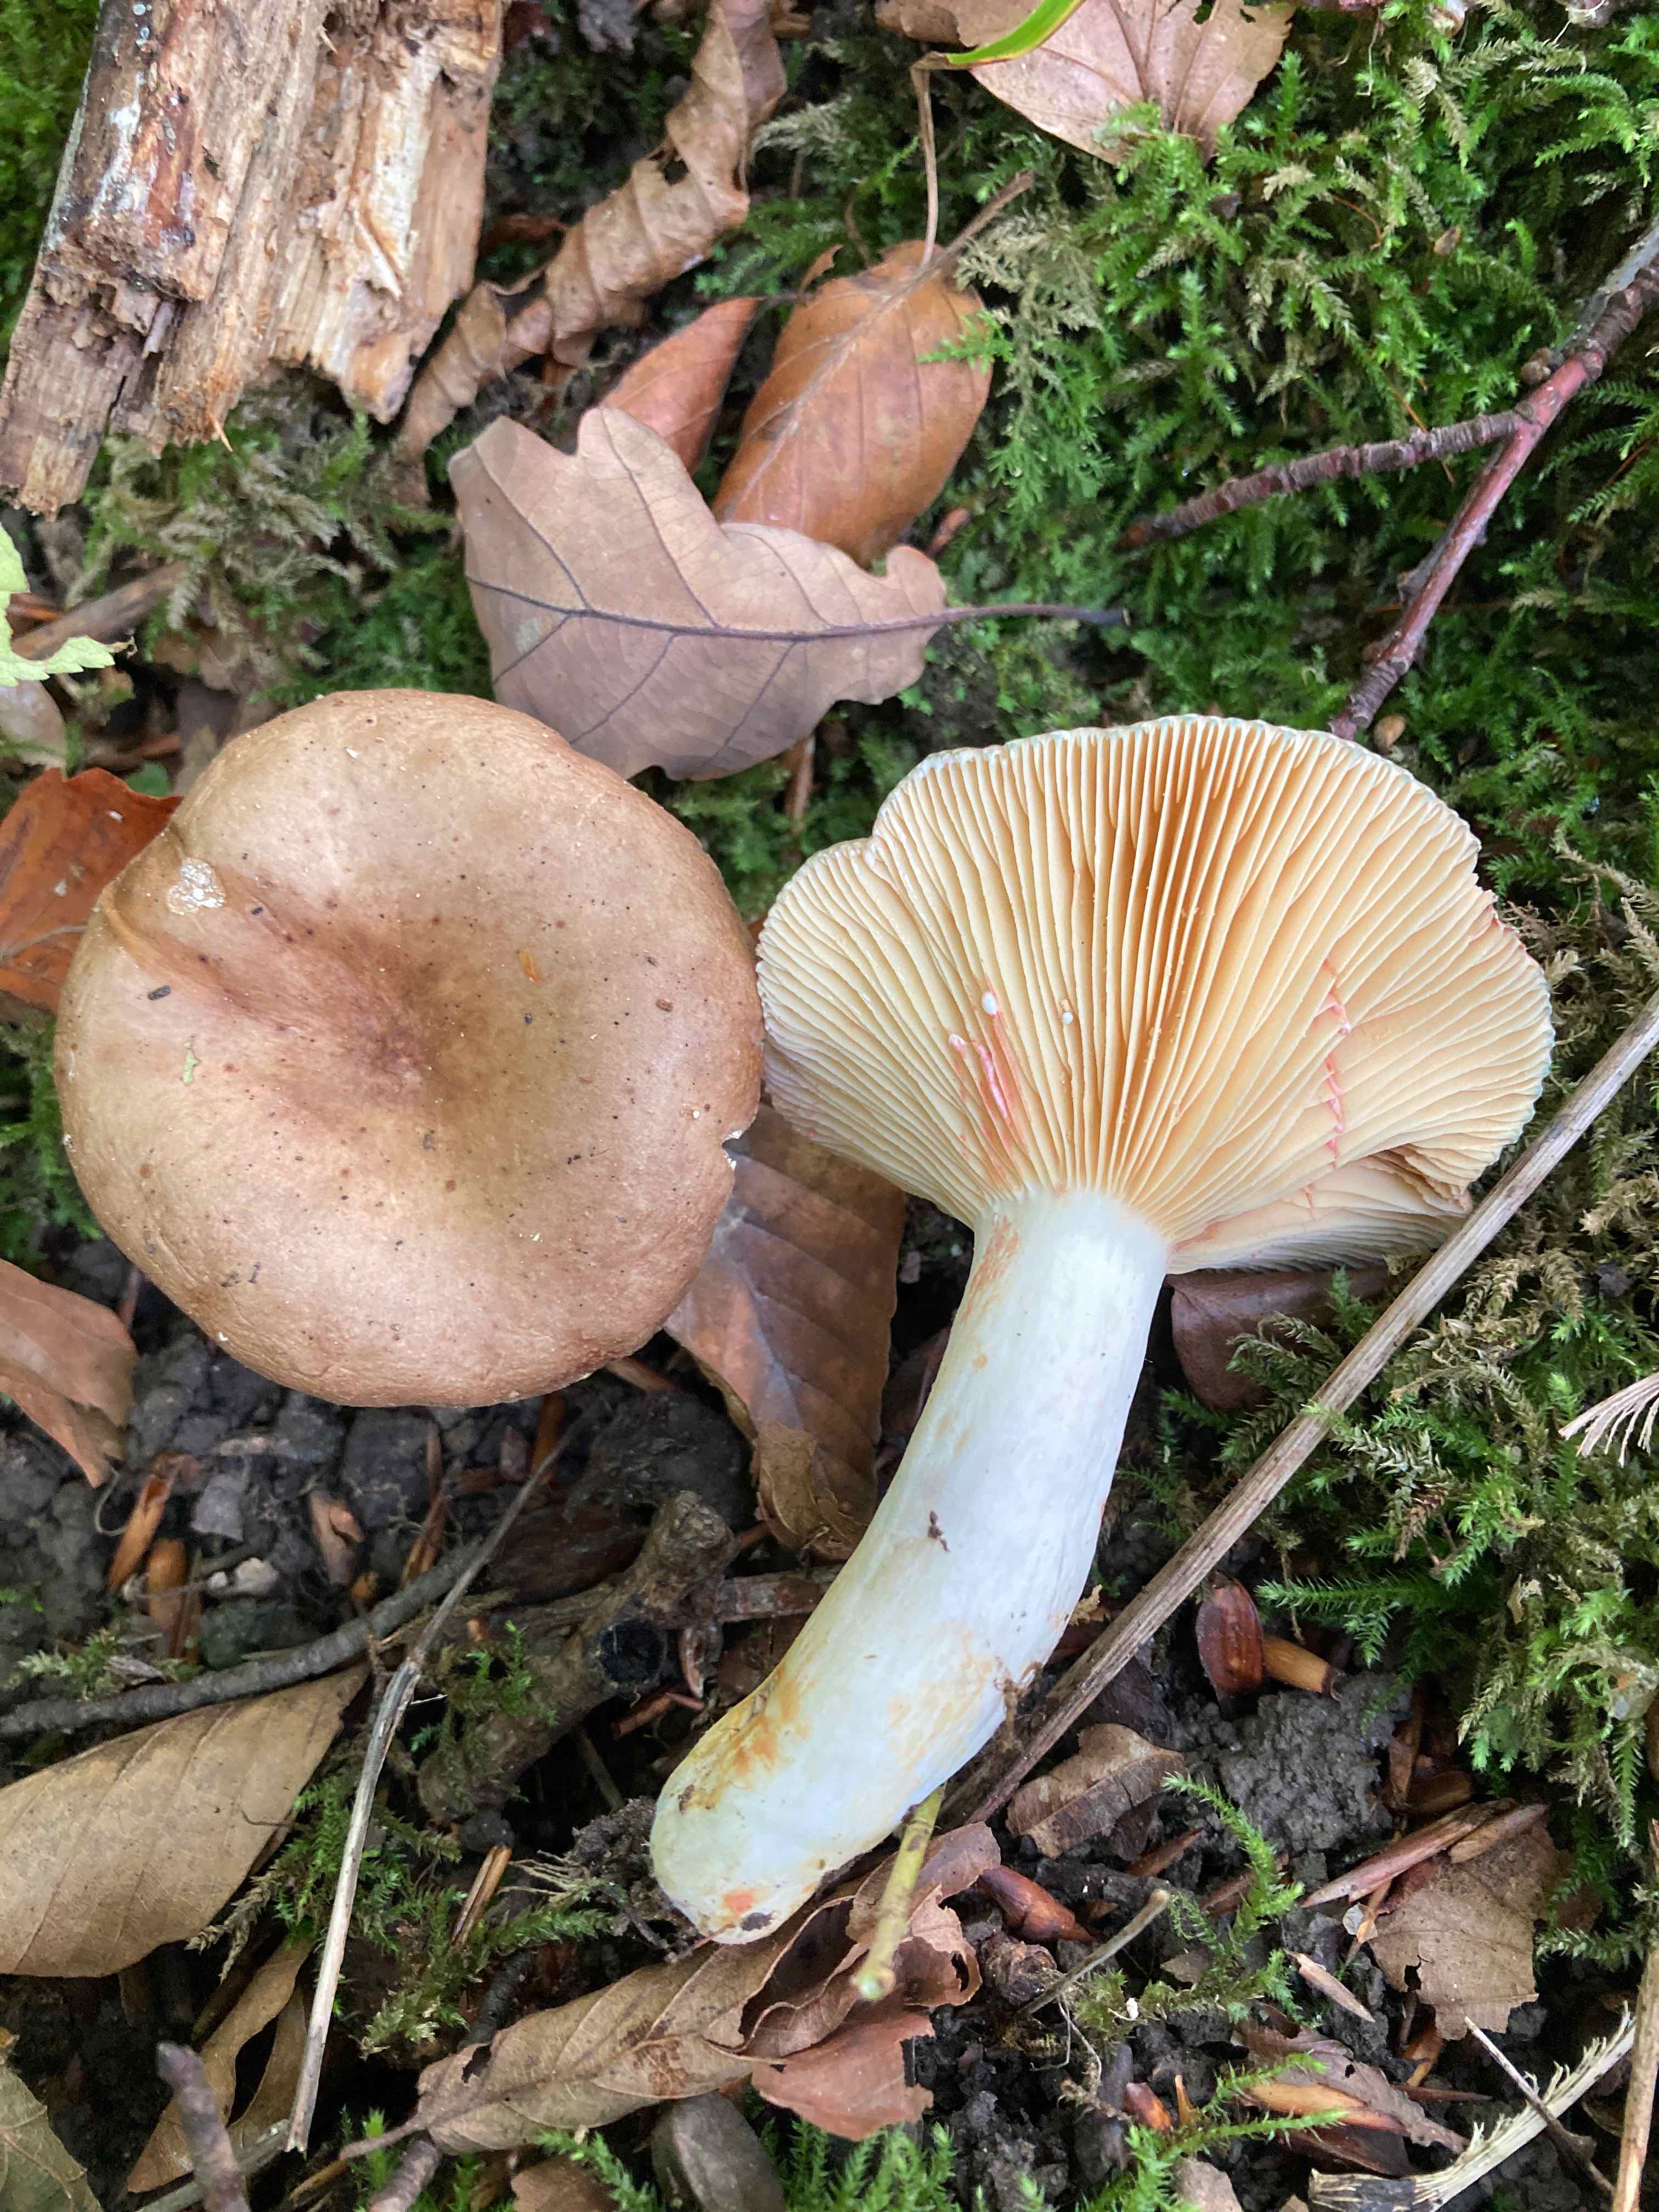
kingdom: Fungi
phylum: Basidiomycota
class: Agaricomycetes
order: Russulales
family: Russulaceae
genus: Lactarius
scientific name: Lactarius acris
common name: rosamælket mælkehat
